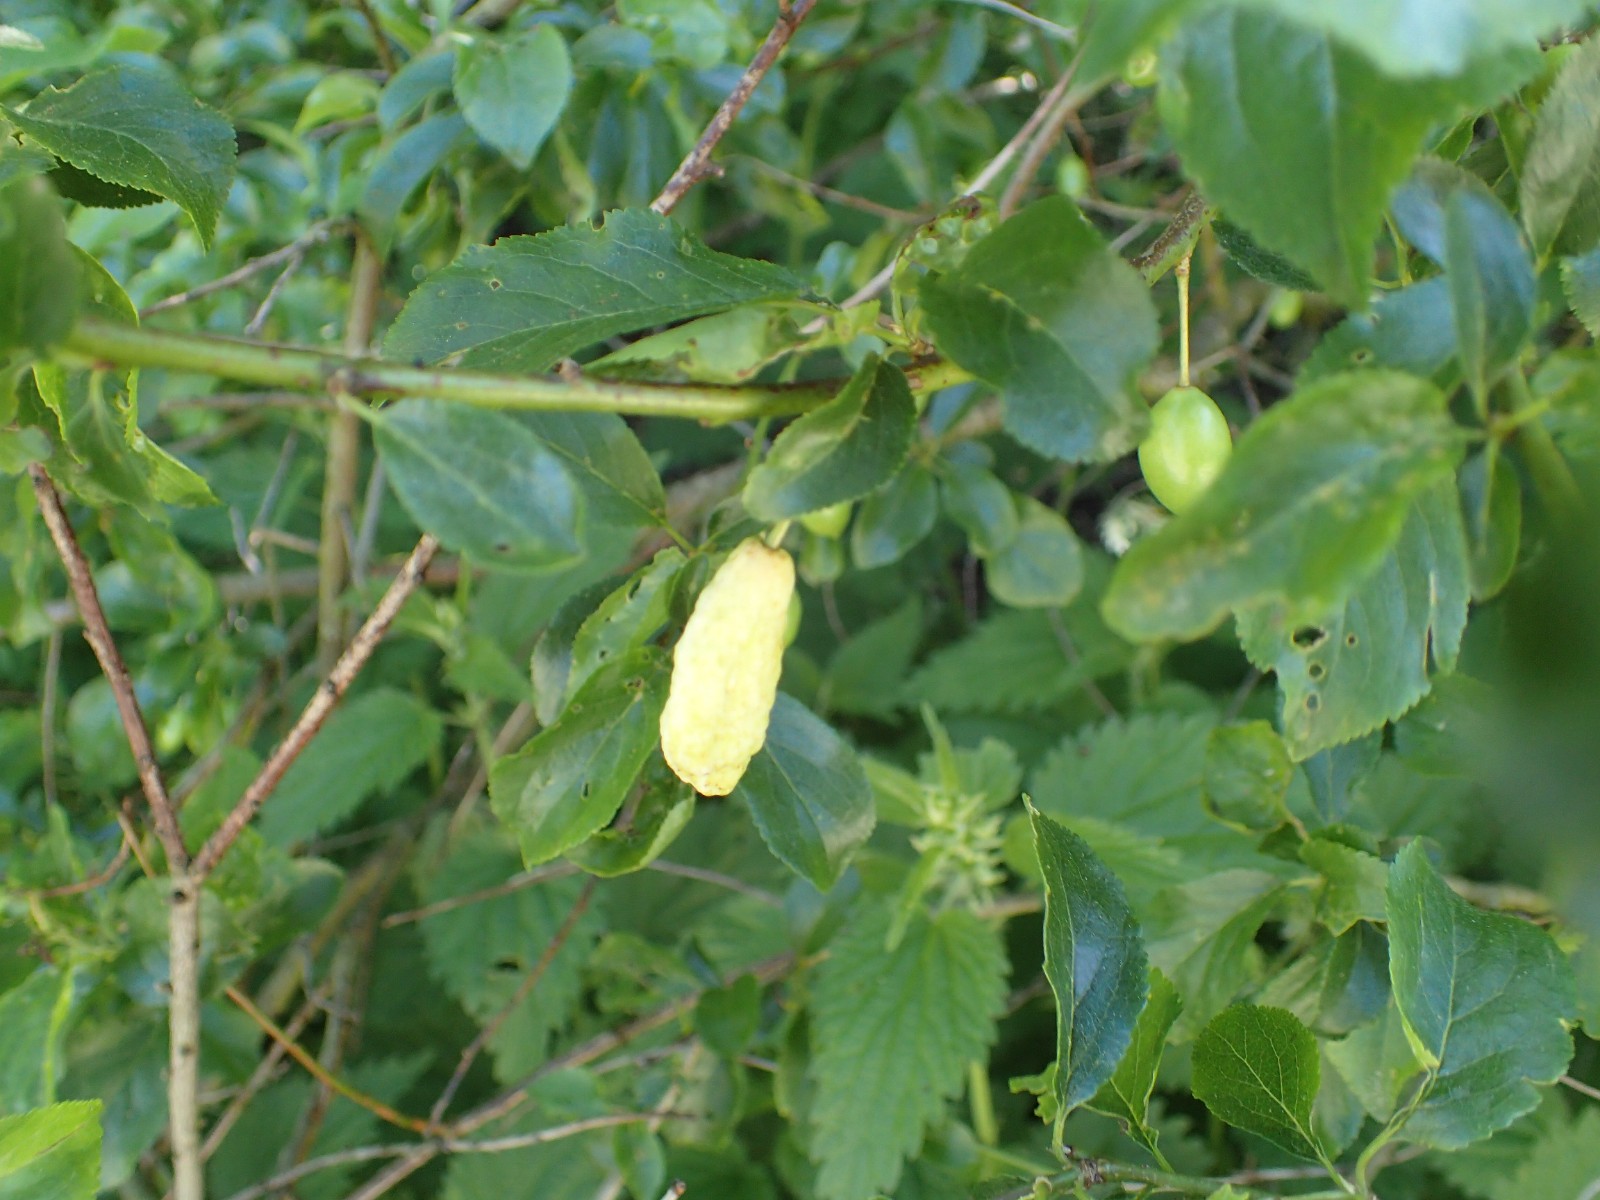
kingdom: Fungi
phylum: Ascomycota
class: Taphrinomycetes
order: Taphrinales
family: Taphrinaceae
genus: Taphrina
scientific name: Taphrina pruni
